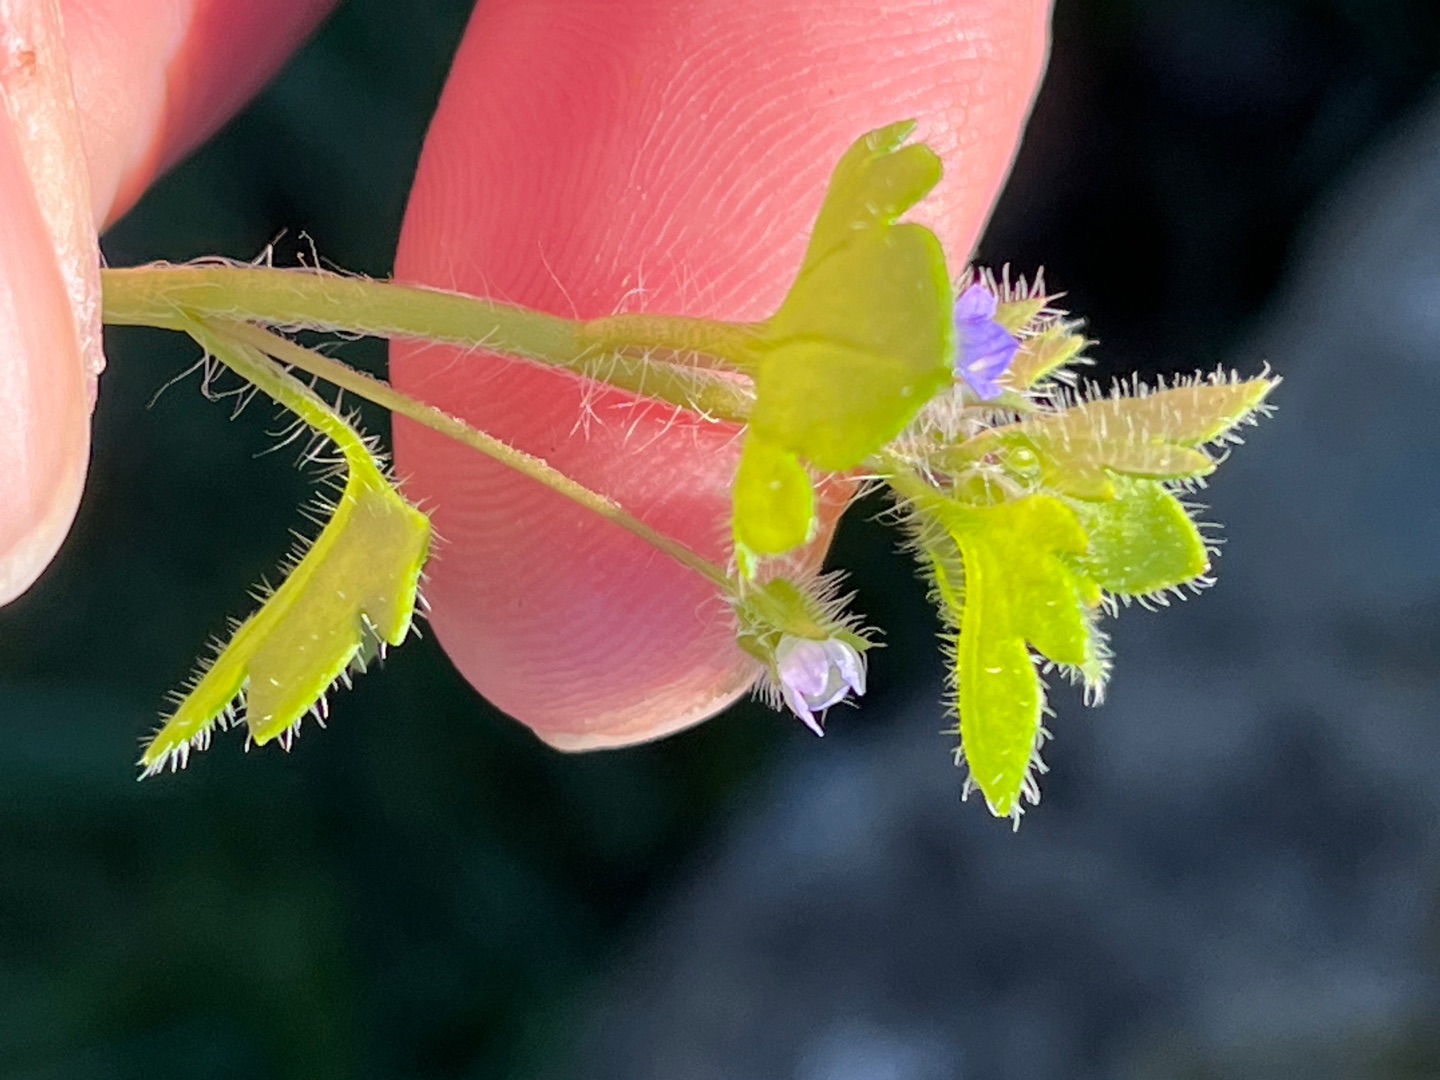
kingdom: Plantae
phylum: Tracheophyta
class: Magnoliopsida
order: Lamiales
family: Plantaginaceae
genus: Veronica
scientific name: Veronica sublobata
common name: Krat-ærenpris
